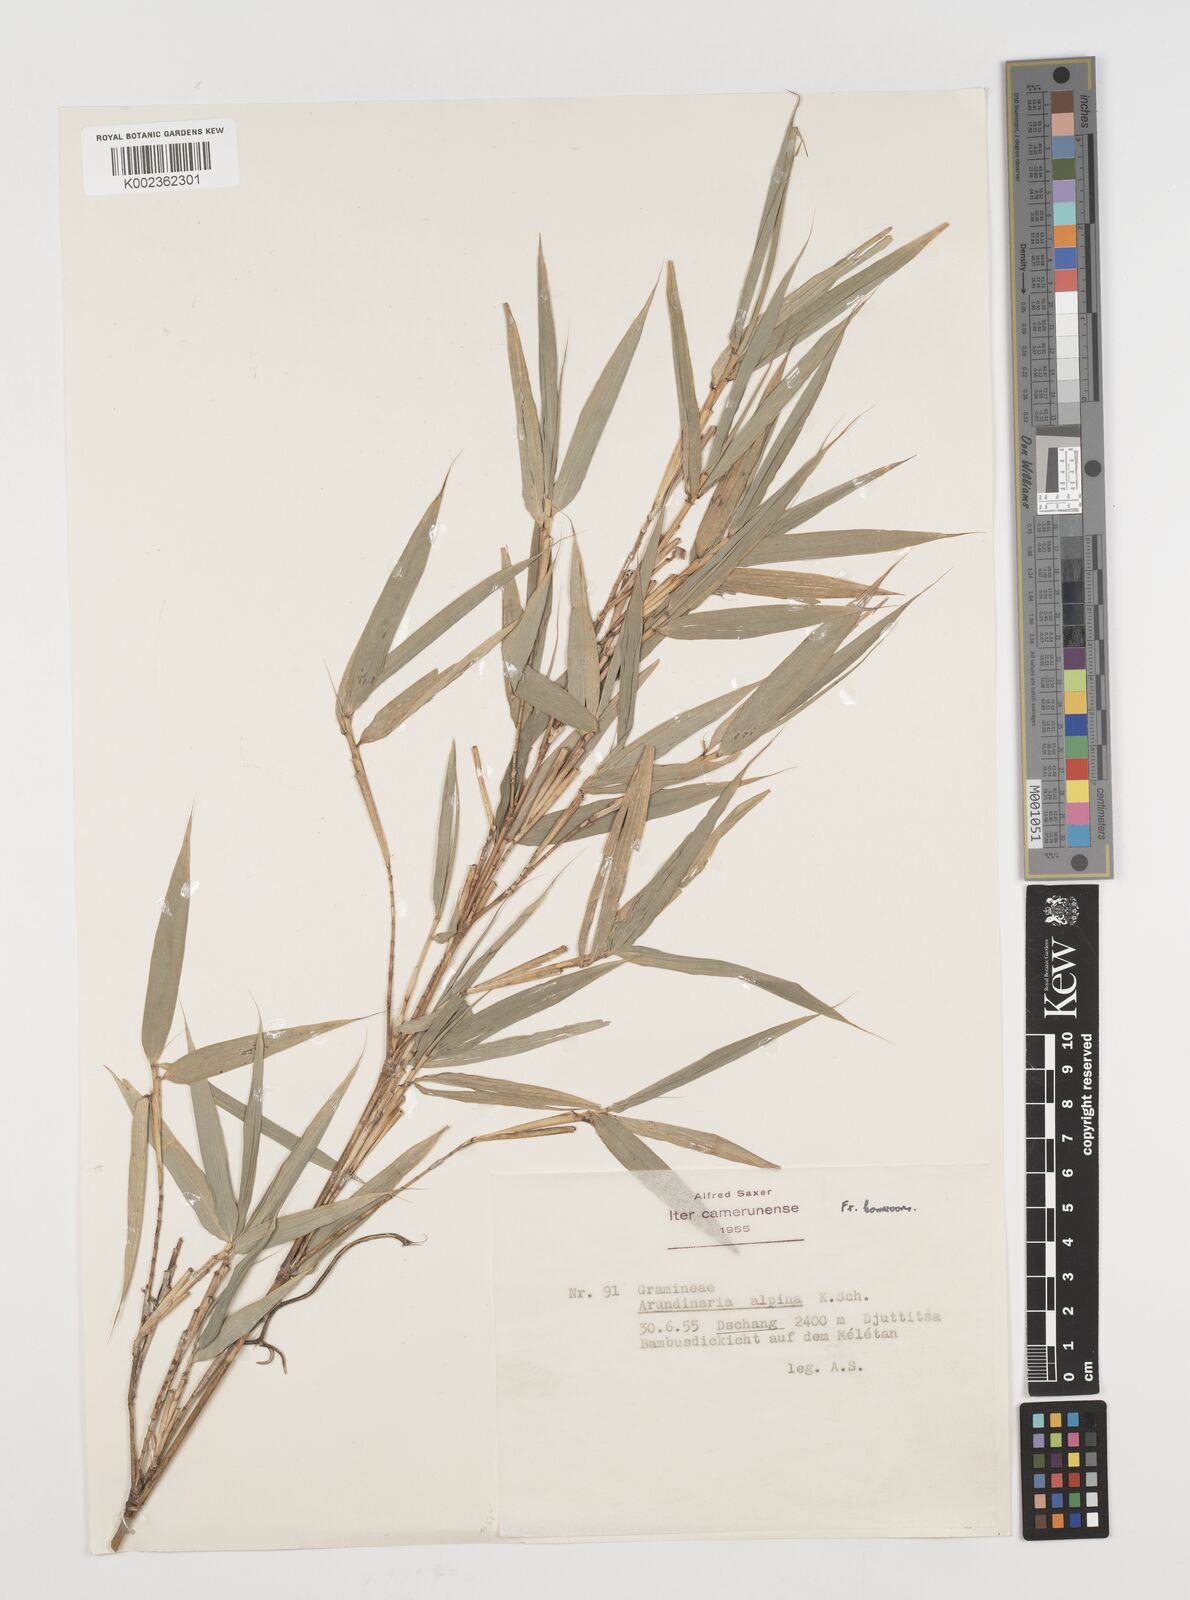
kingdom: Plantae
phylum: Tracheophyta
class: Liliopsida
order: Poales
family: Poaceae
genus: Oldeania
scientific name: Oldeania alpina
